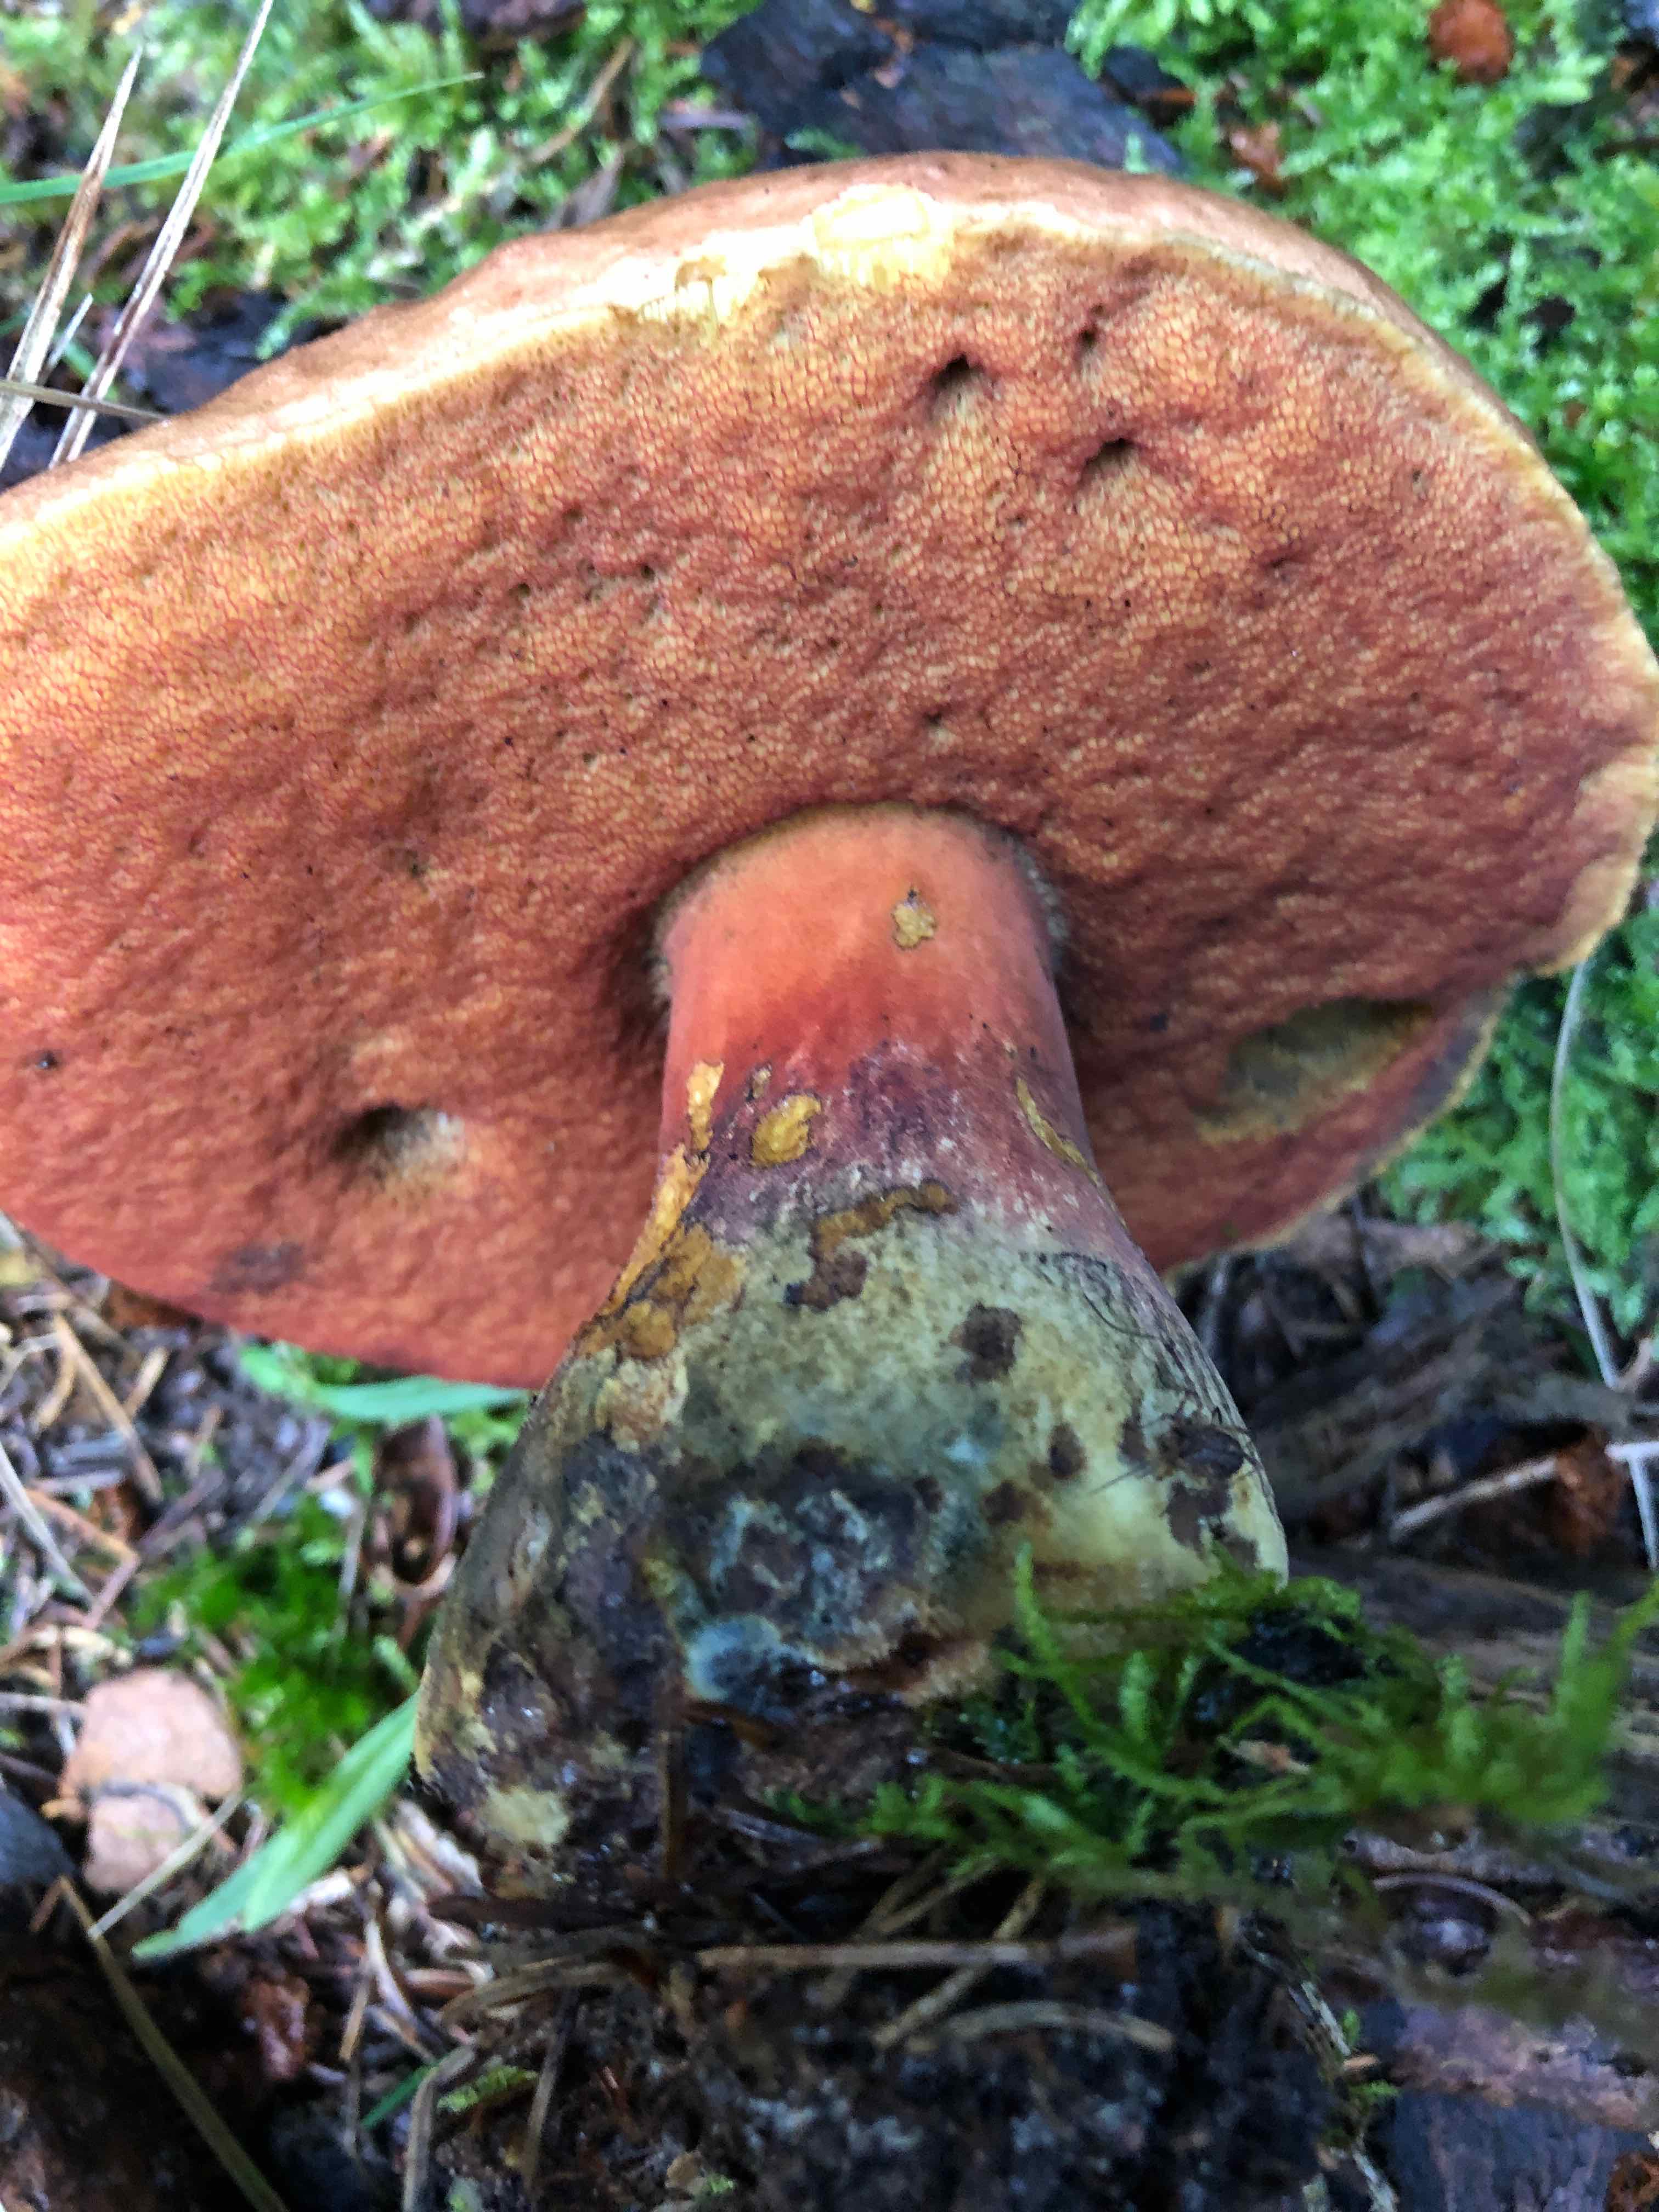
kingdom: Fungi
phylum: Basidiomycota
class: Agaricomycetes
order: Boletales
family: Boletaceae
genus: Neoboletus
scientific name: Neoboletus erythropus
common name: punktstokket indigorørhat
